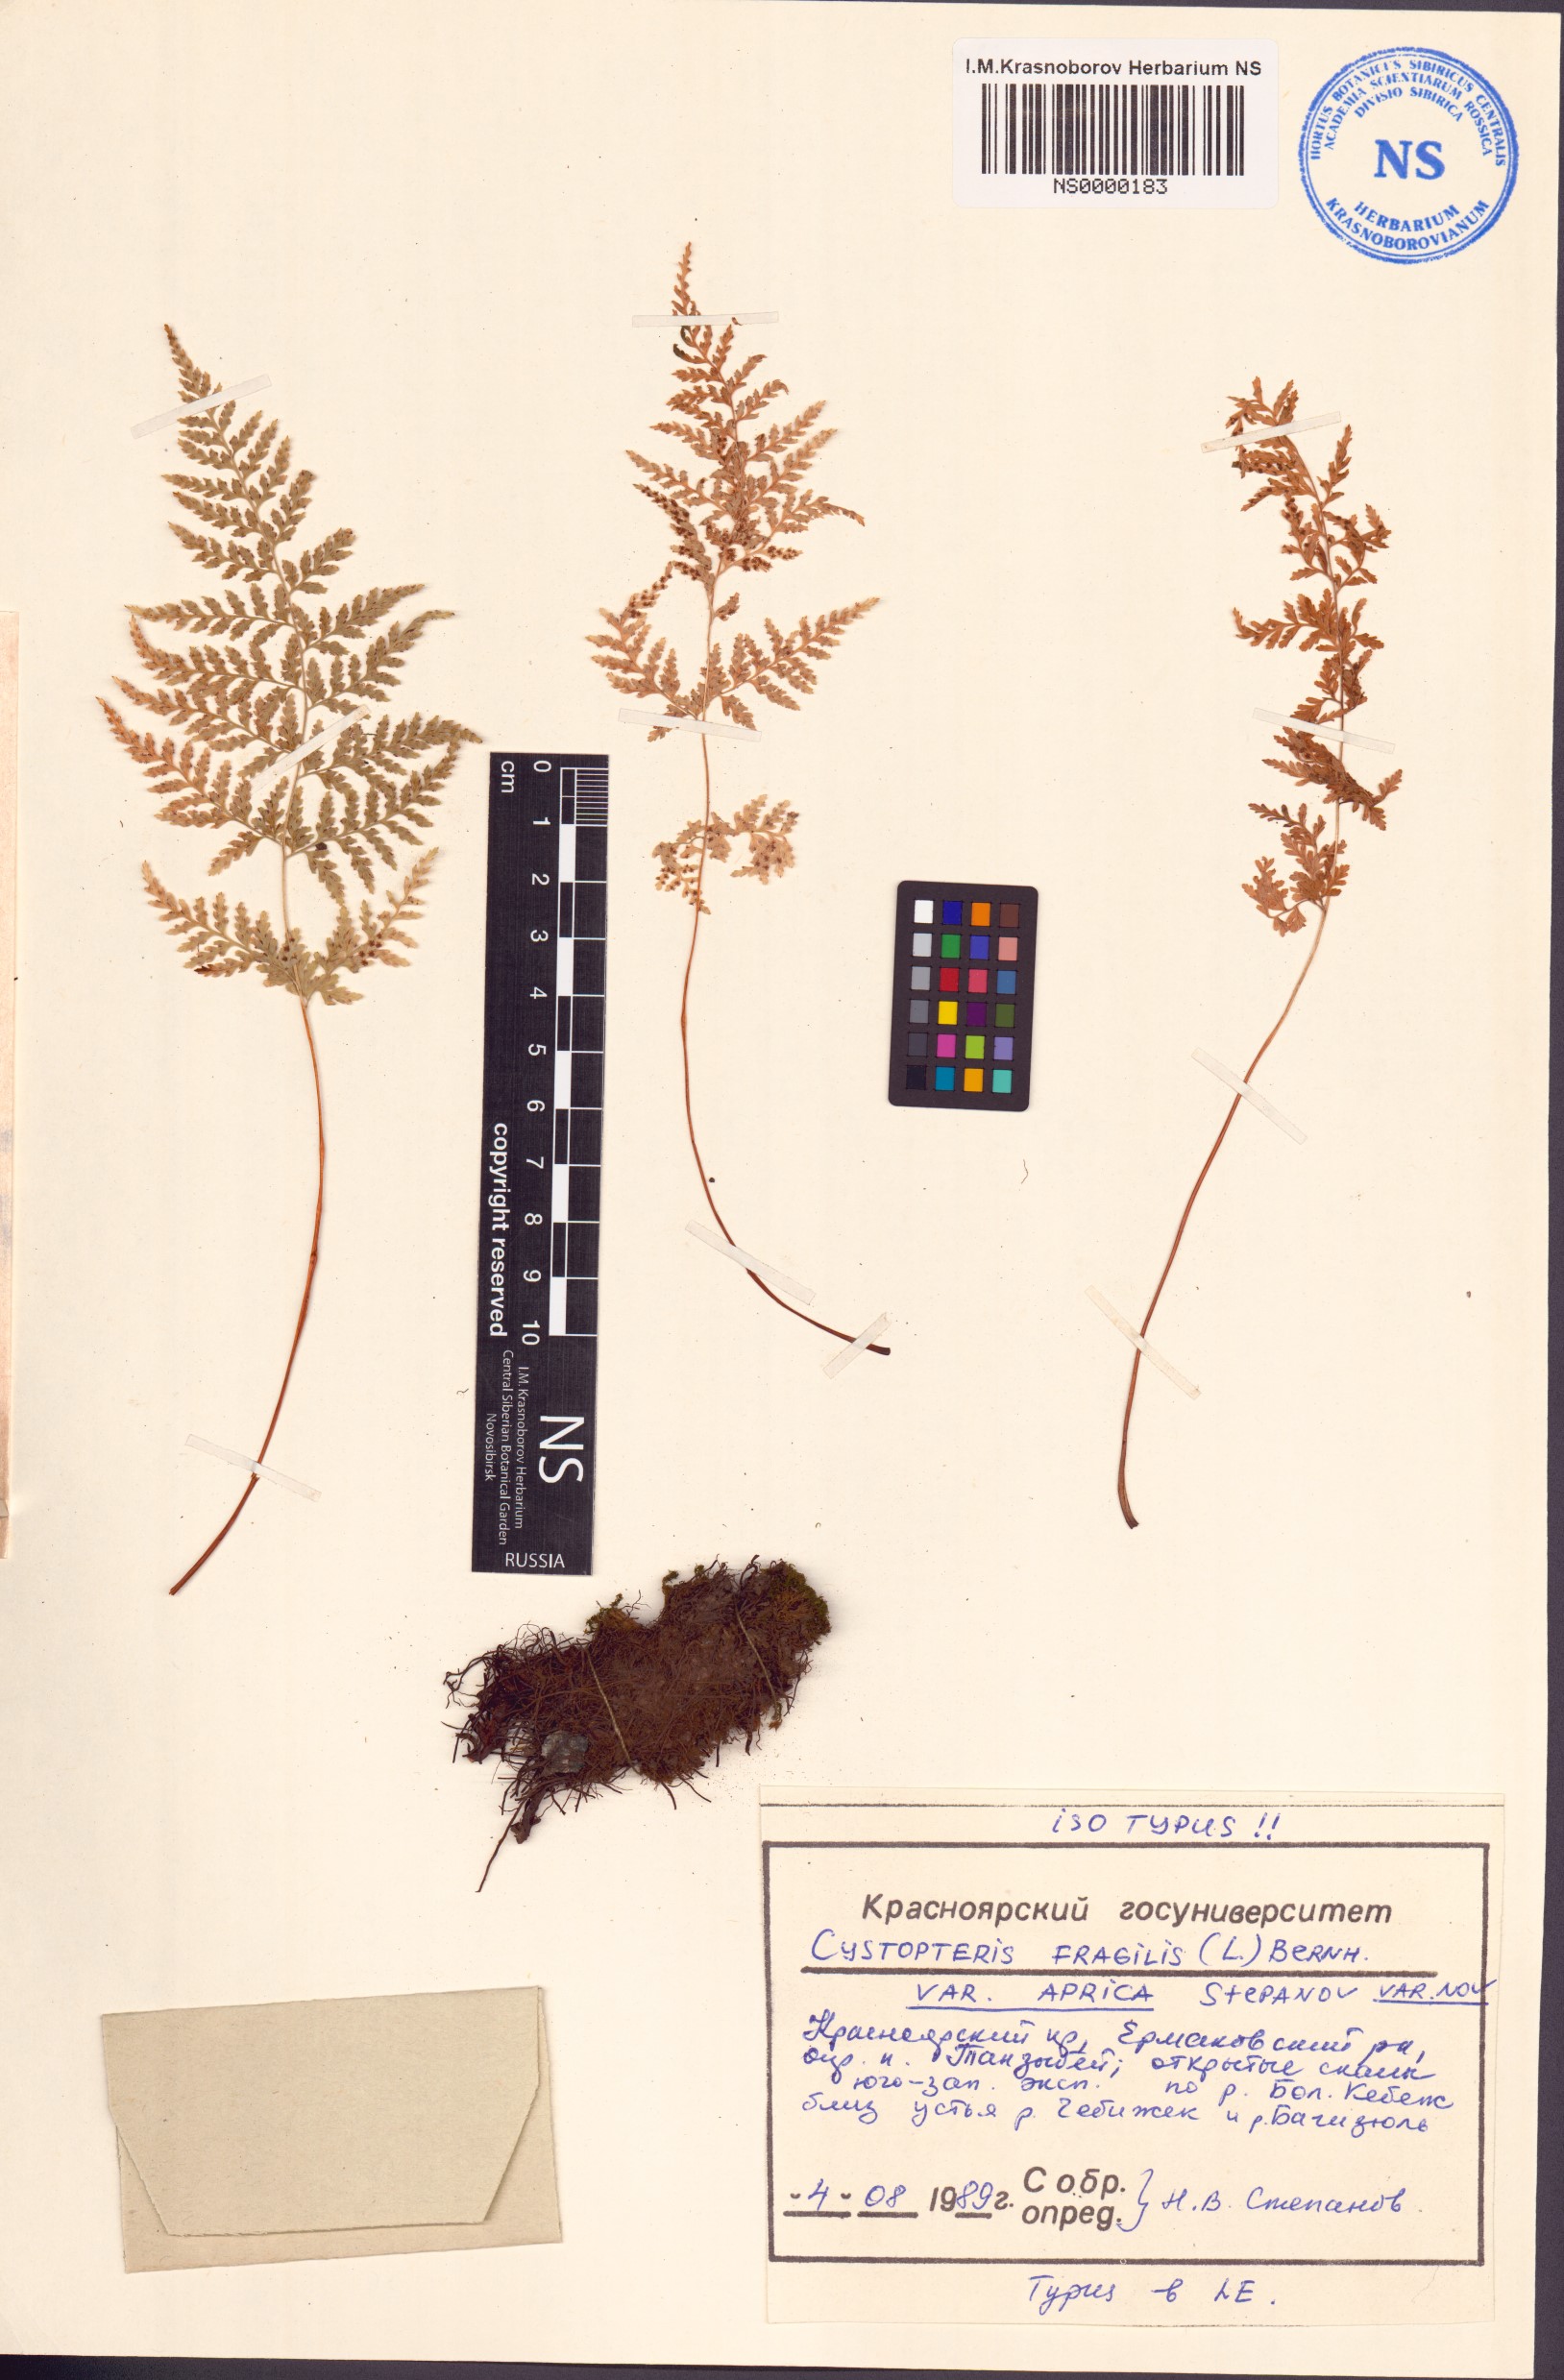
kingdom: Plantae
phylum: Tracheophyta
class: Polypodiopsida
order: Polypodiales
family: Cystopteridaceae
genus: Cystopteris
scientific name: Cystopteris fragilis
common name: Brittle bladder fern
